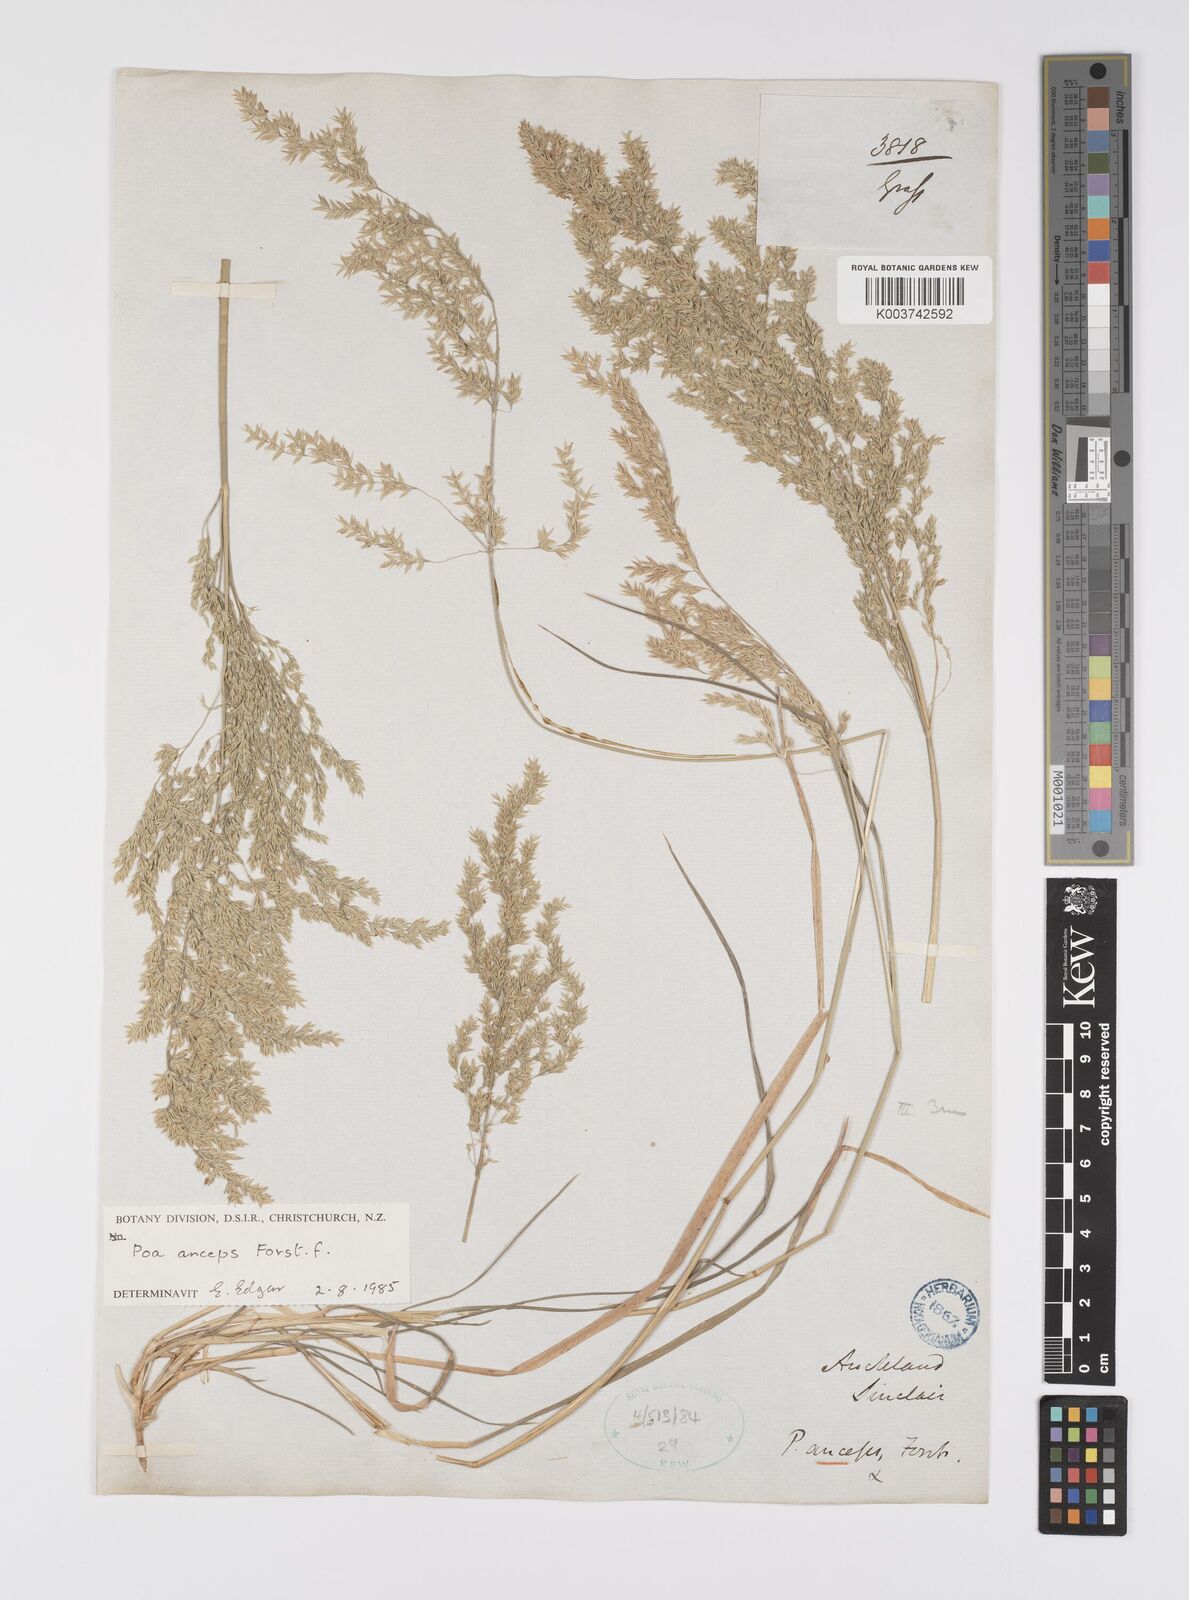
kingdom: Plantae
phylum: Tracheophyta
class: Liliopsida
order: Poales
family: Poaceae
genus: Poa
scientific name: Poa anceps
